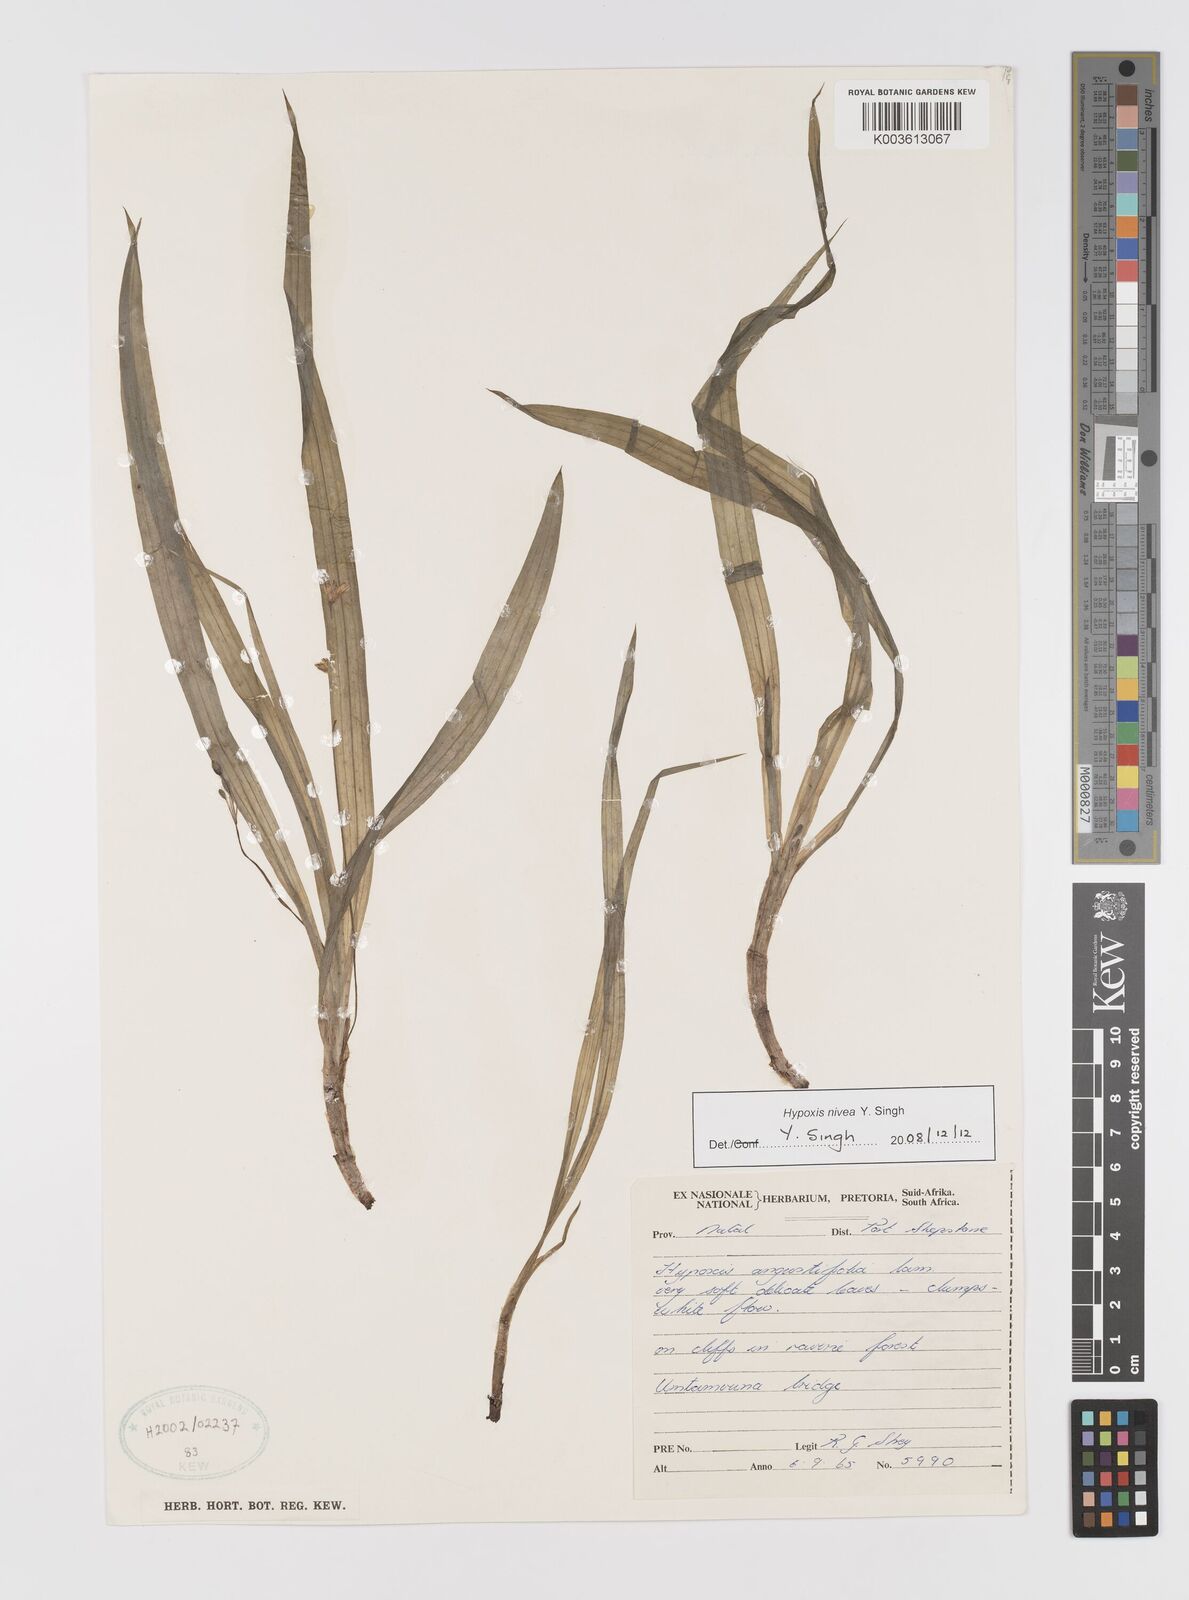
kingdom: Plantae
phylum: Tracheophyta
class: Liliopsida
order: Asparagales
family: Hypoxidaceae
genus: Hypoxis
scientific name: Hypoxis nivea
